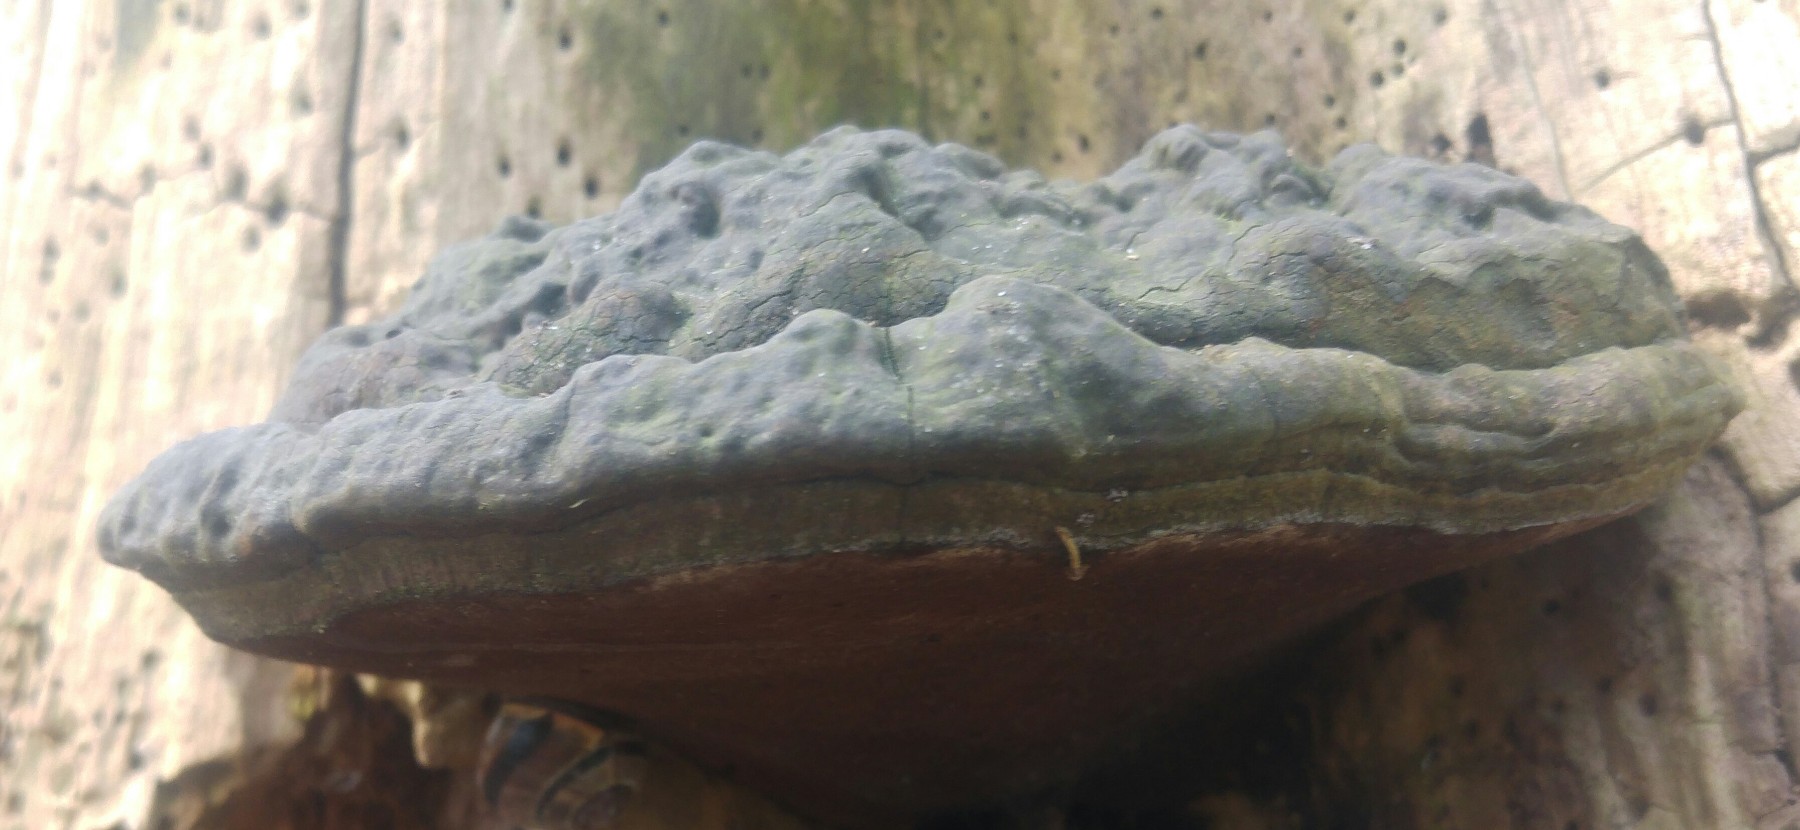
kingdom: Fungi
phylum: Basidiomycota
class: Agaricomycetes
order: Polyporales
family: Polyporaceae
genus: Ganoderma
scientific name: Ganoderma applanatum
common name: flad lakporesvamp
